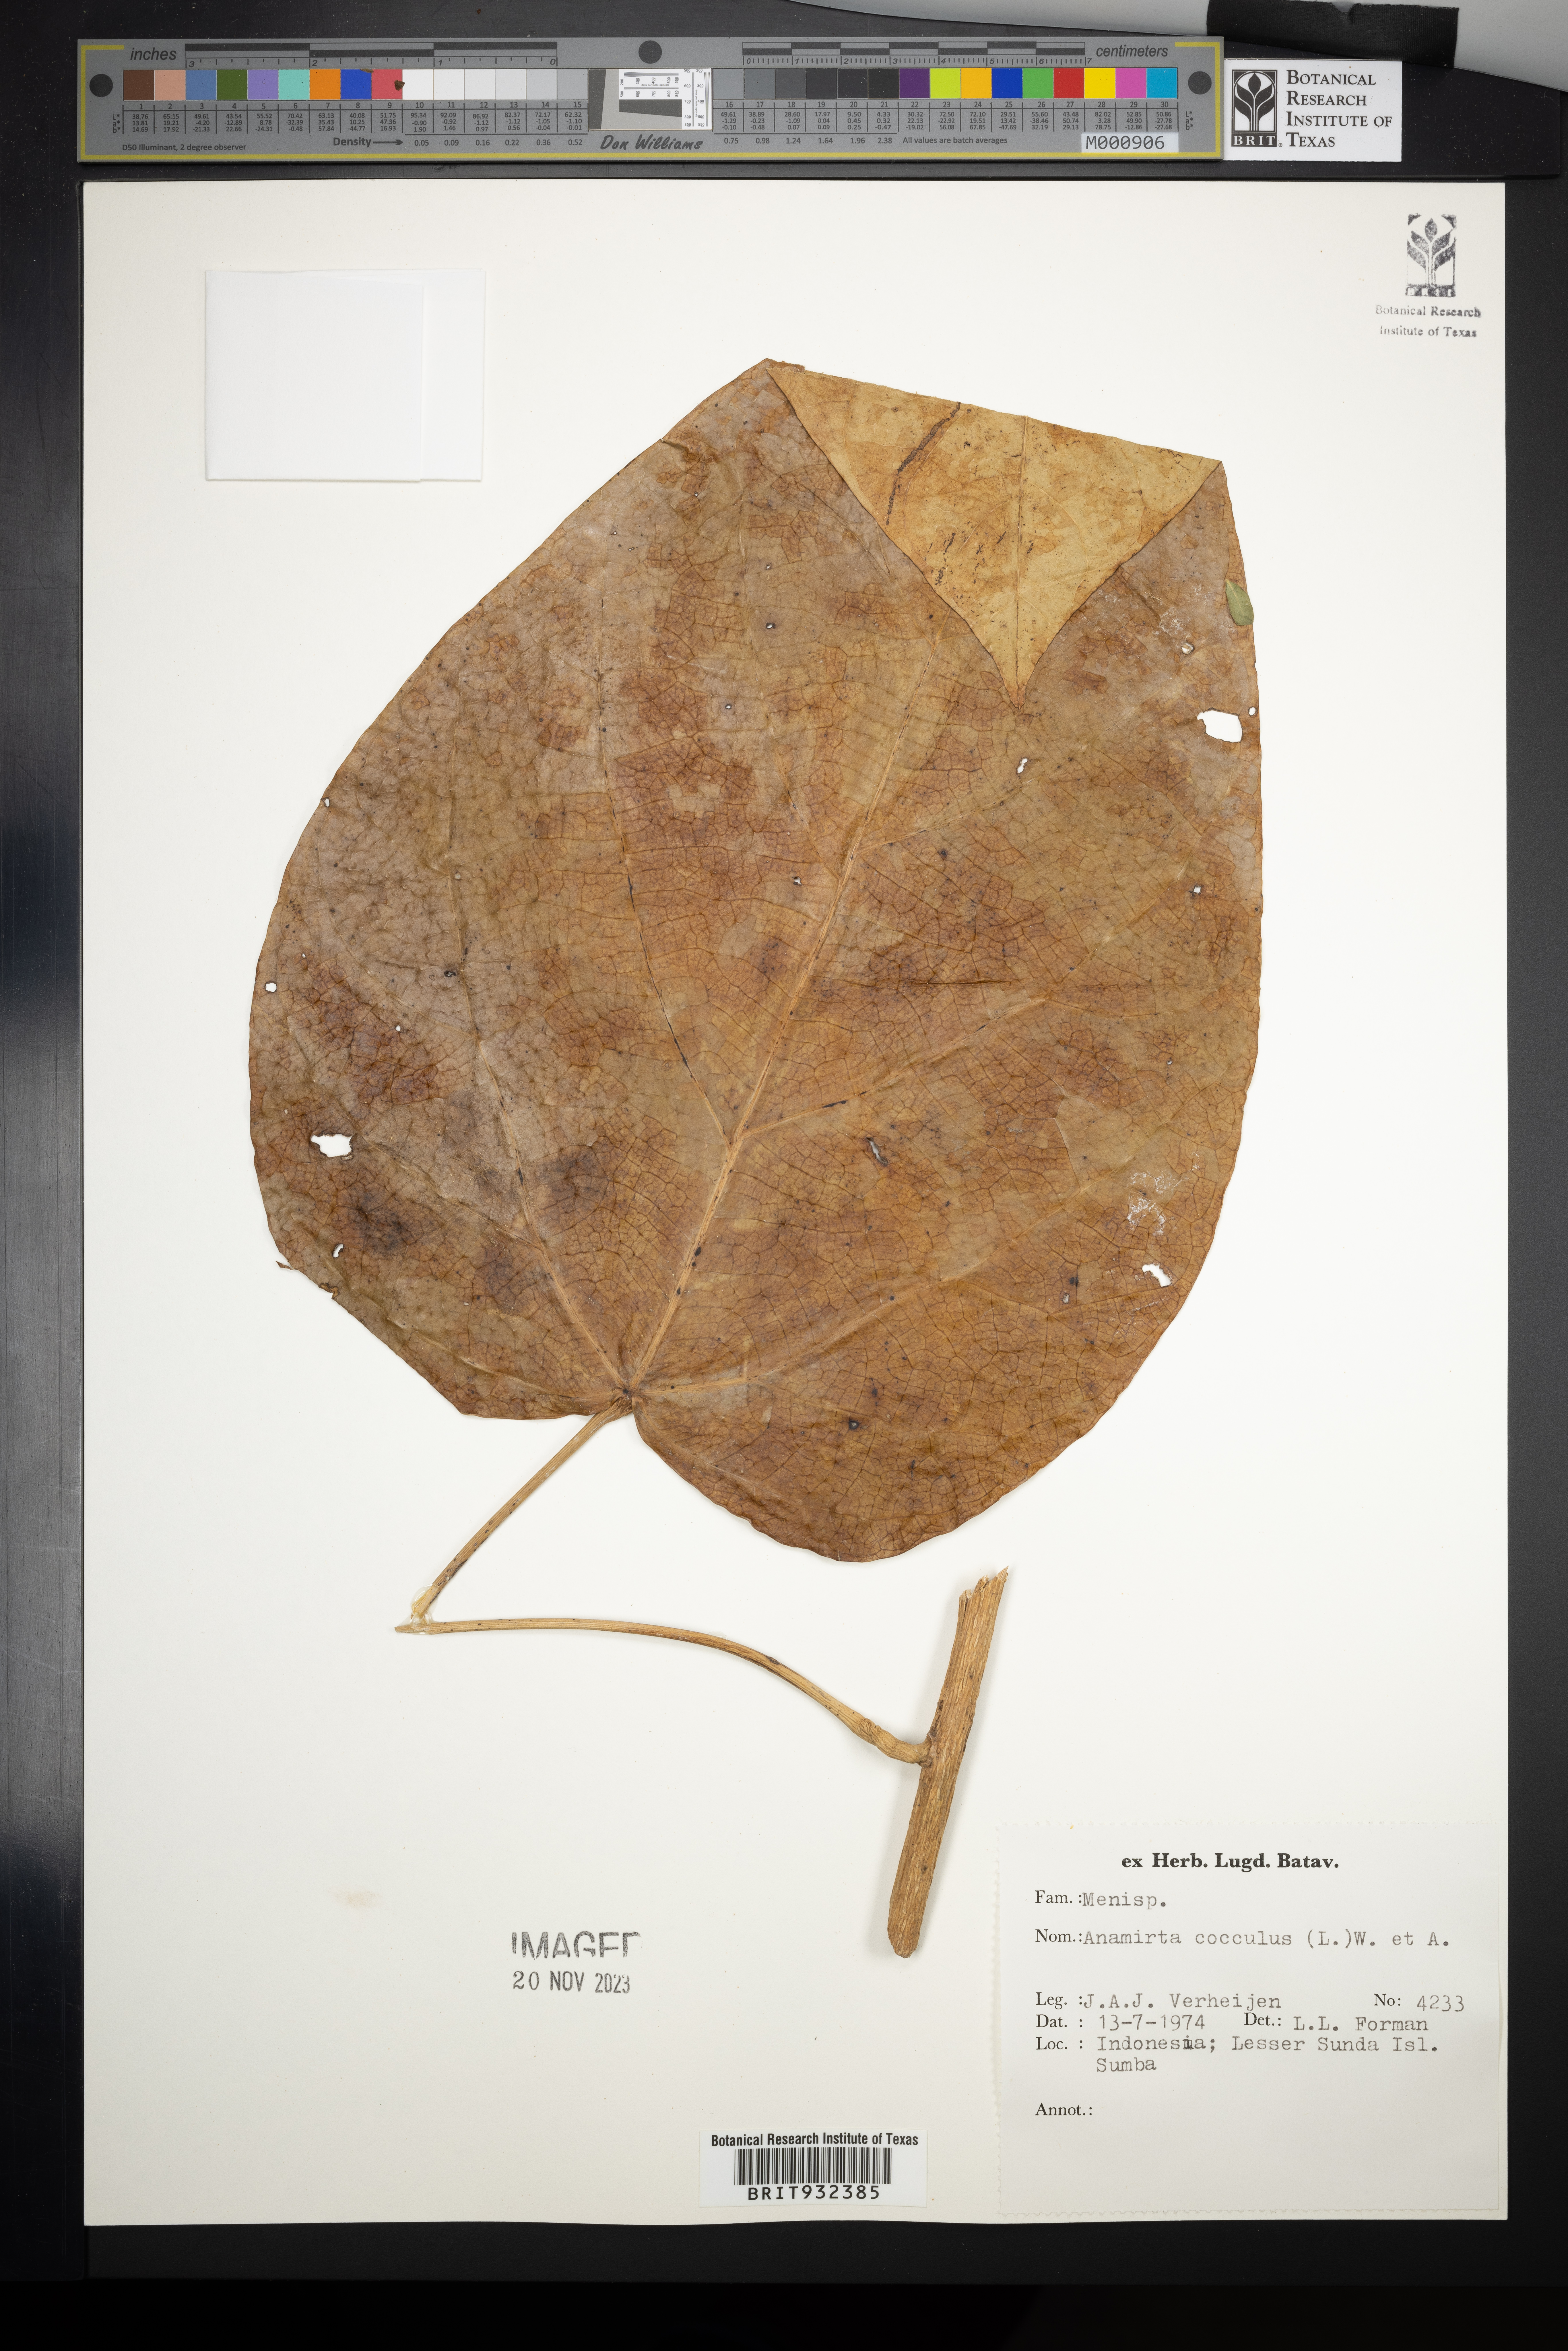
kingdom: Plantae
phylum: Tracheophyta
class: Magnoliopsida
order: Ranunculales
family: Menispermaceae
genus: Anamirta
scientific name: Anamirta
